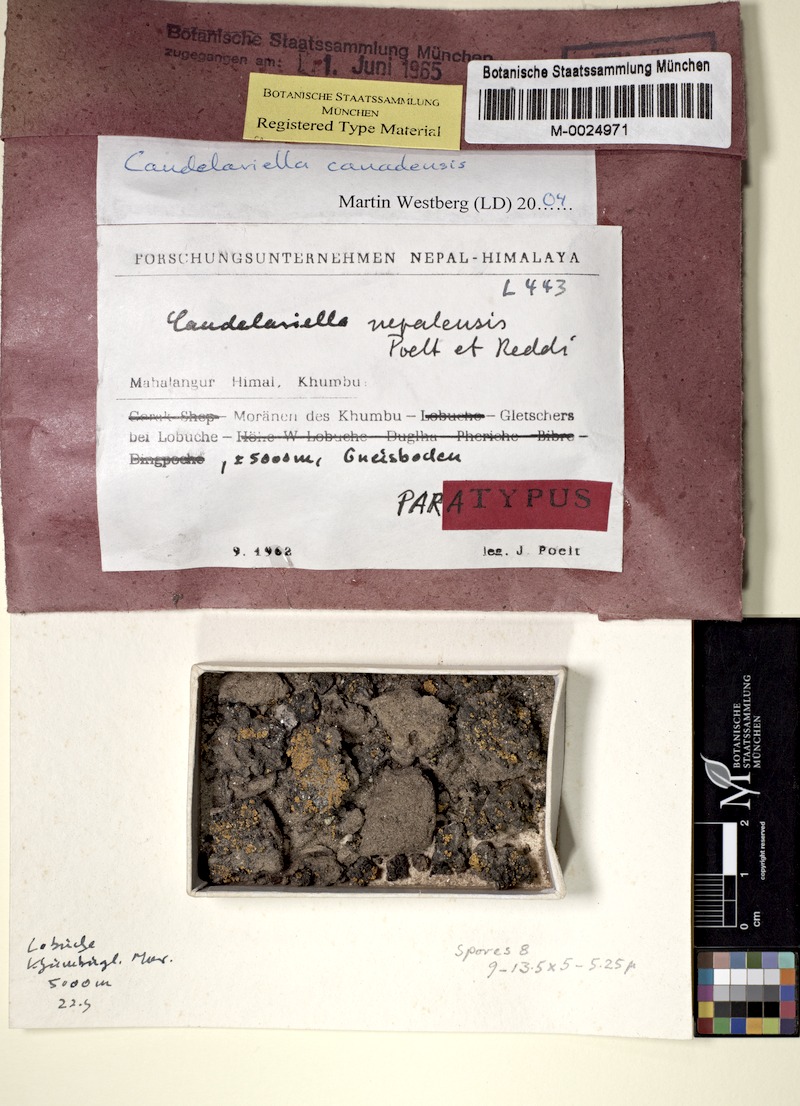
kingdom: Fungi
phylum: Ascomycota
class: Candelariomycetes
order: Candelariales
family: Candelariaceae
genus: Opeltiella
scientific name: Opeltiella canadensis
